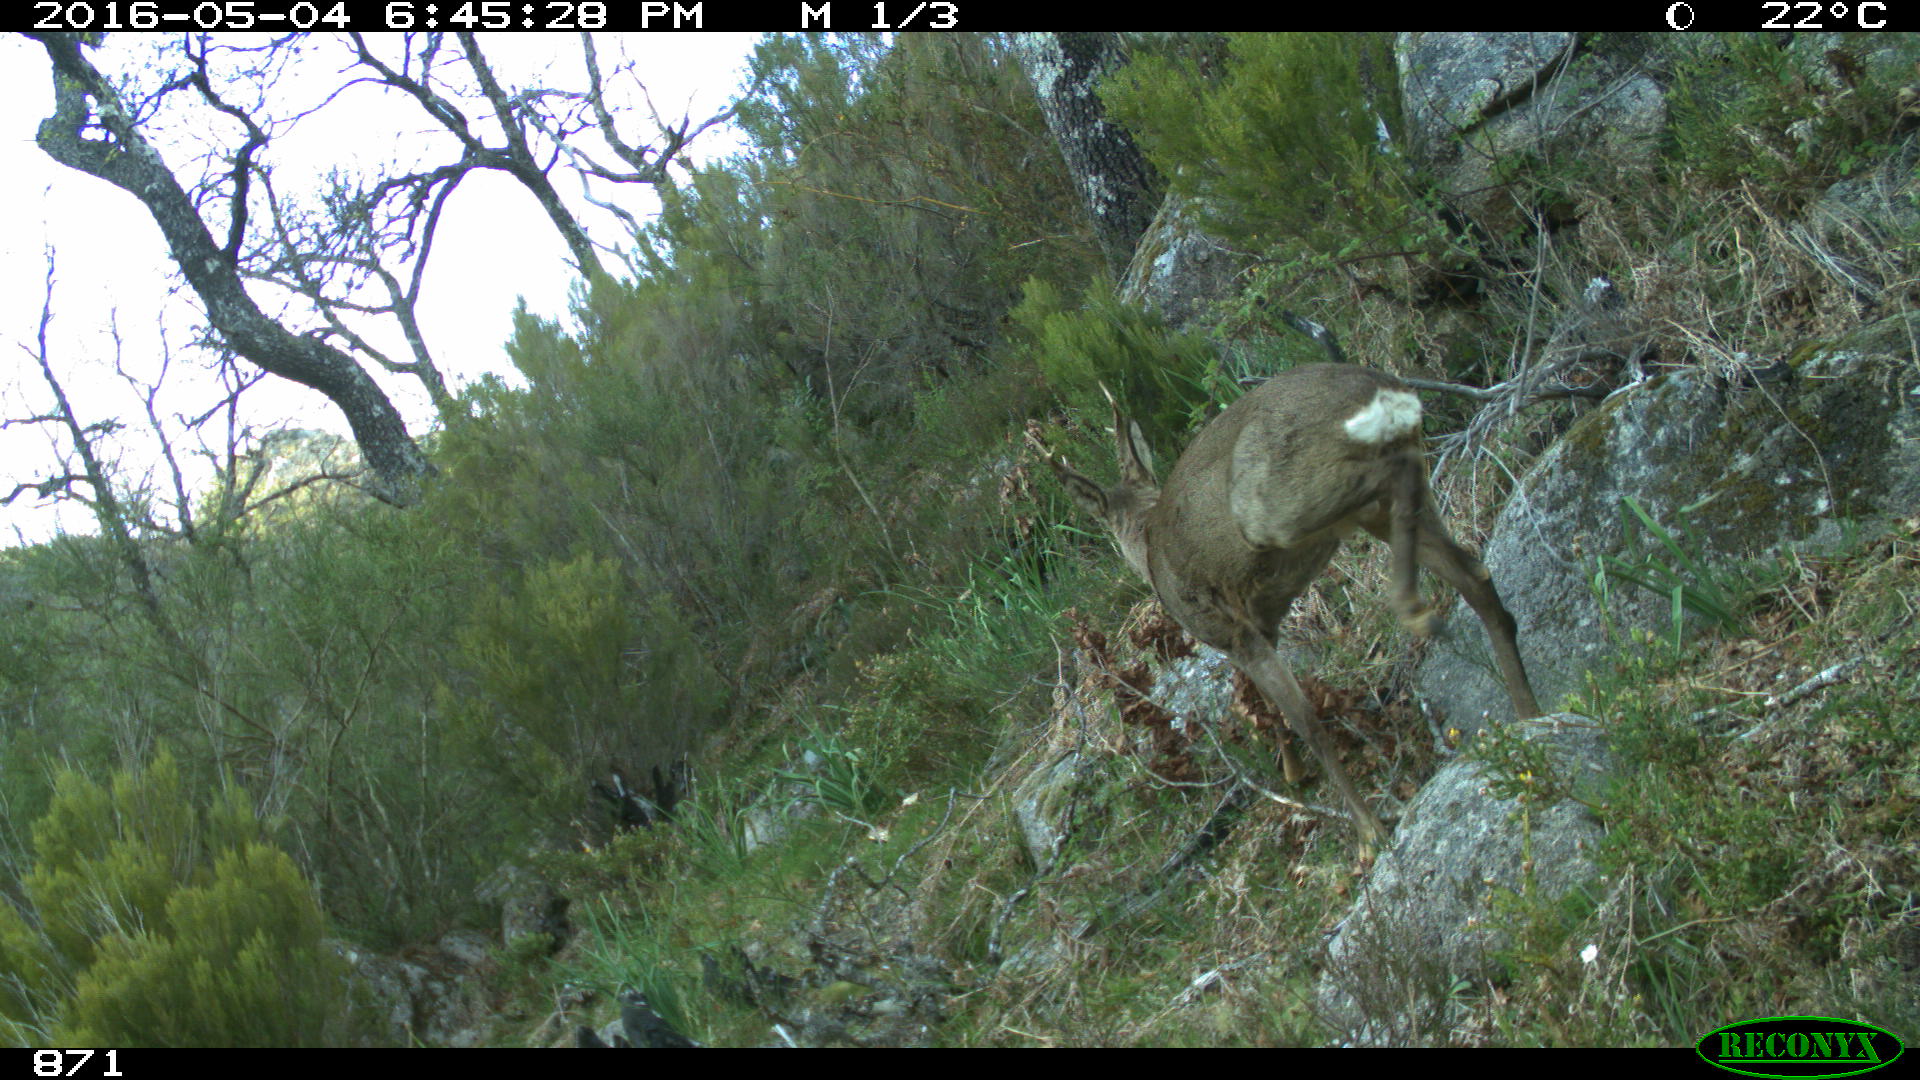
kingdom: Animalia
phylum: Chordata
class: Mammalia
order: Artiodactyla
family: Cervidae
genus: Capreolus
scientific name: Capreolus capreolus
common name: Western roe deer
